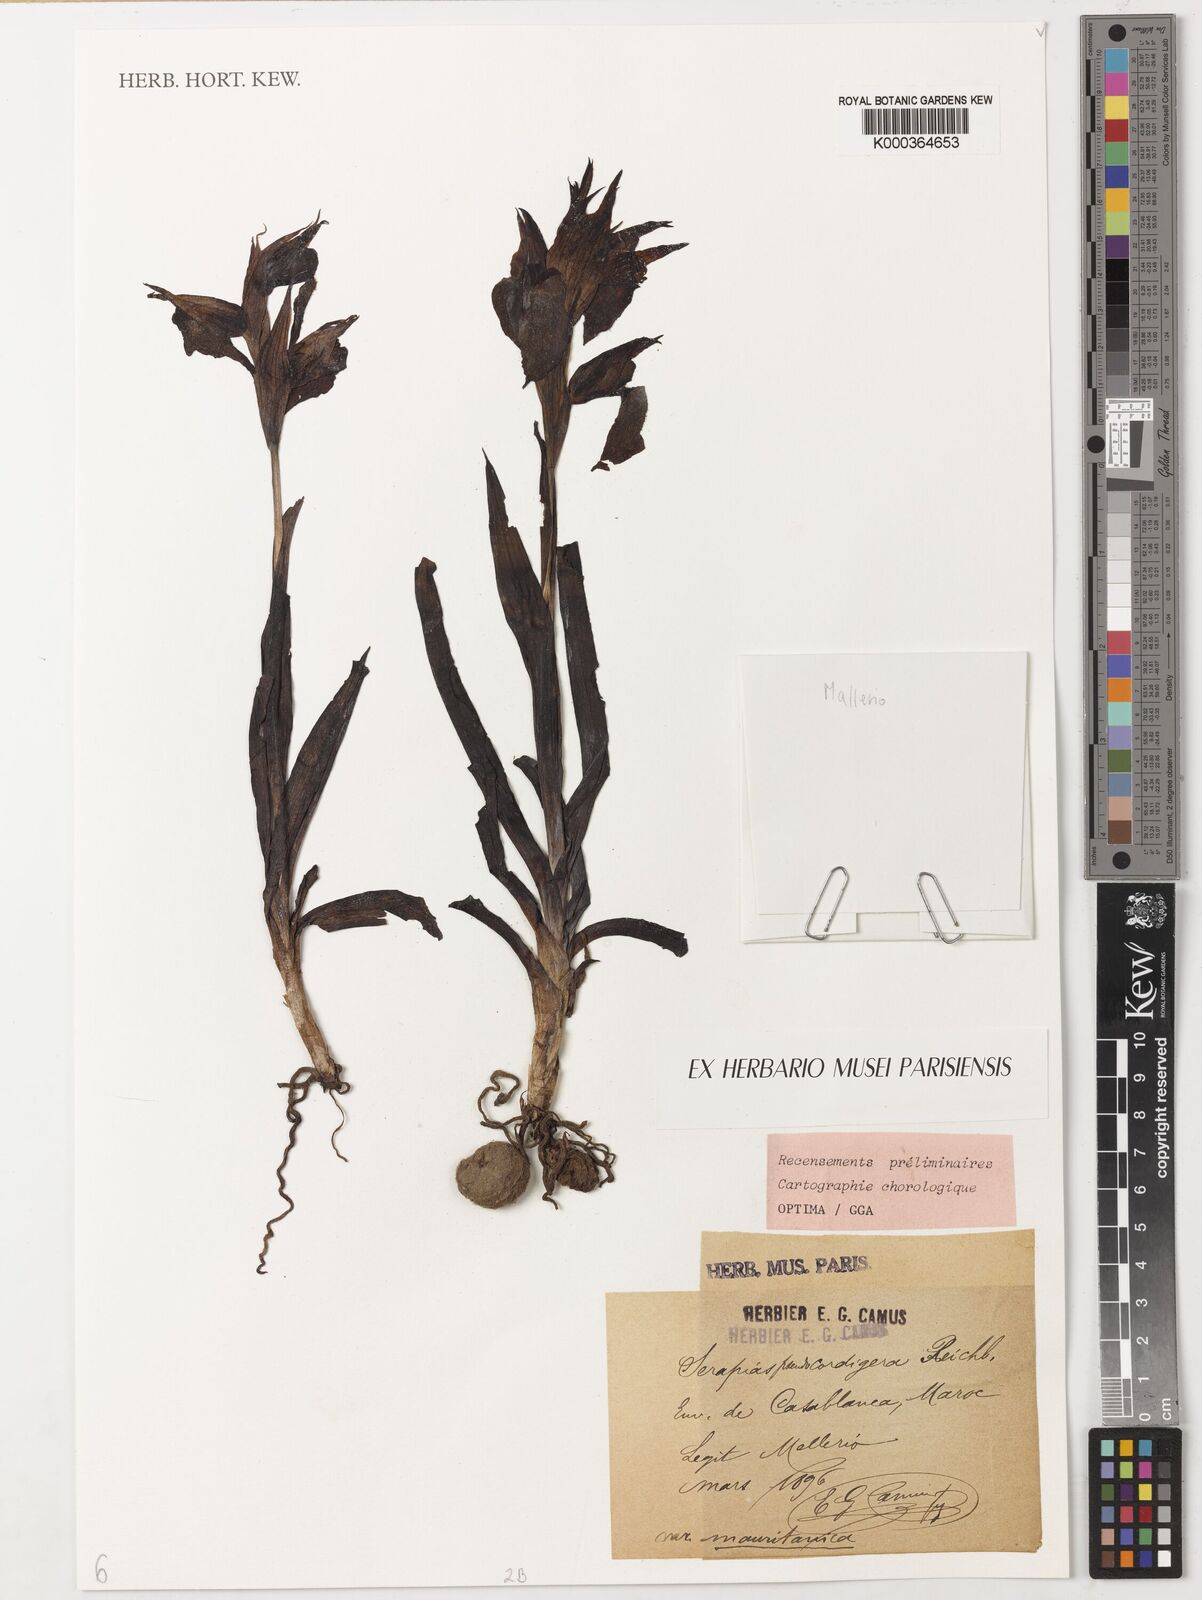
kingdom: Plantae
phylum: Tracheophyta
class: Liliopsida
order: Asparagales
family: Orchidaceae
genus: Serapias
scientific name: Serapias
